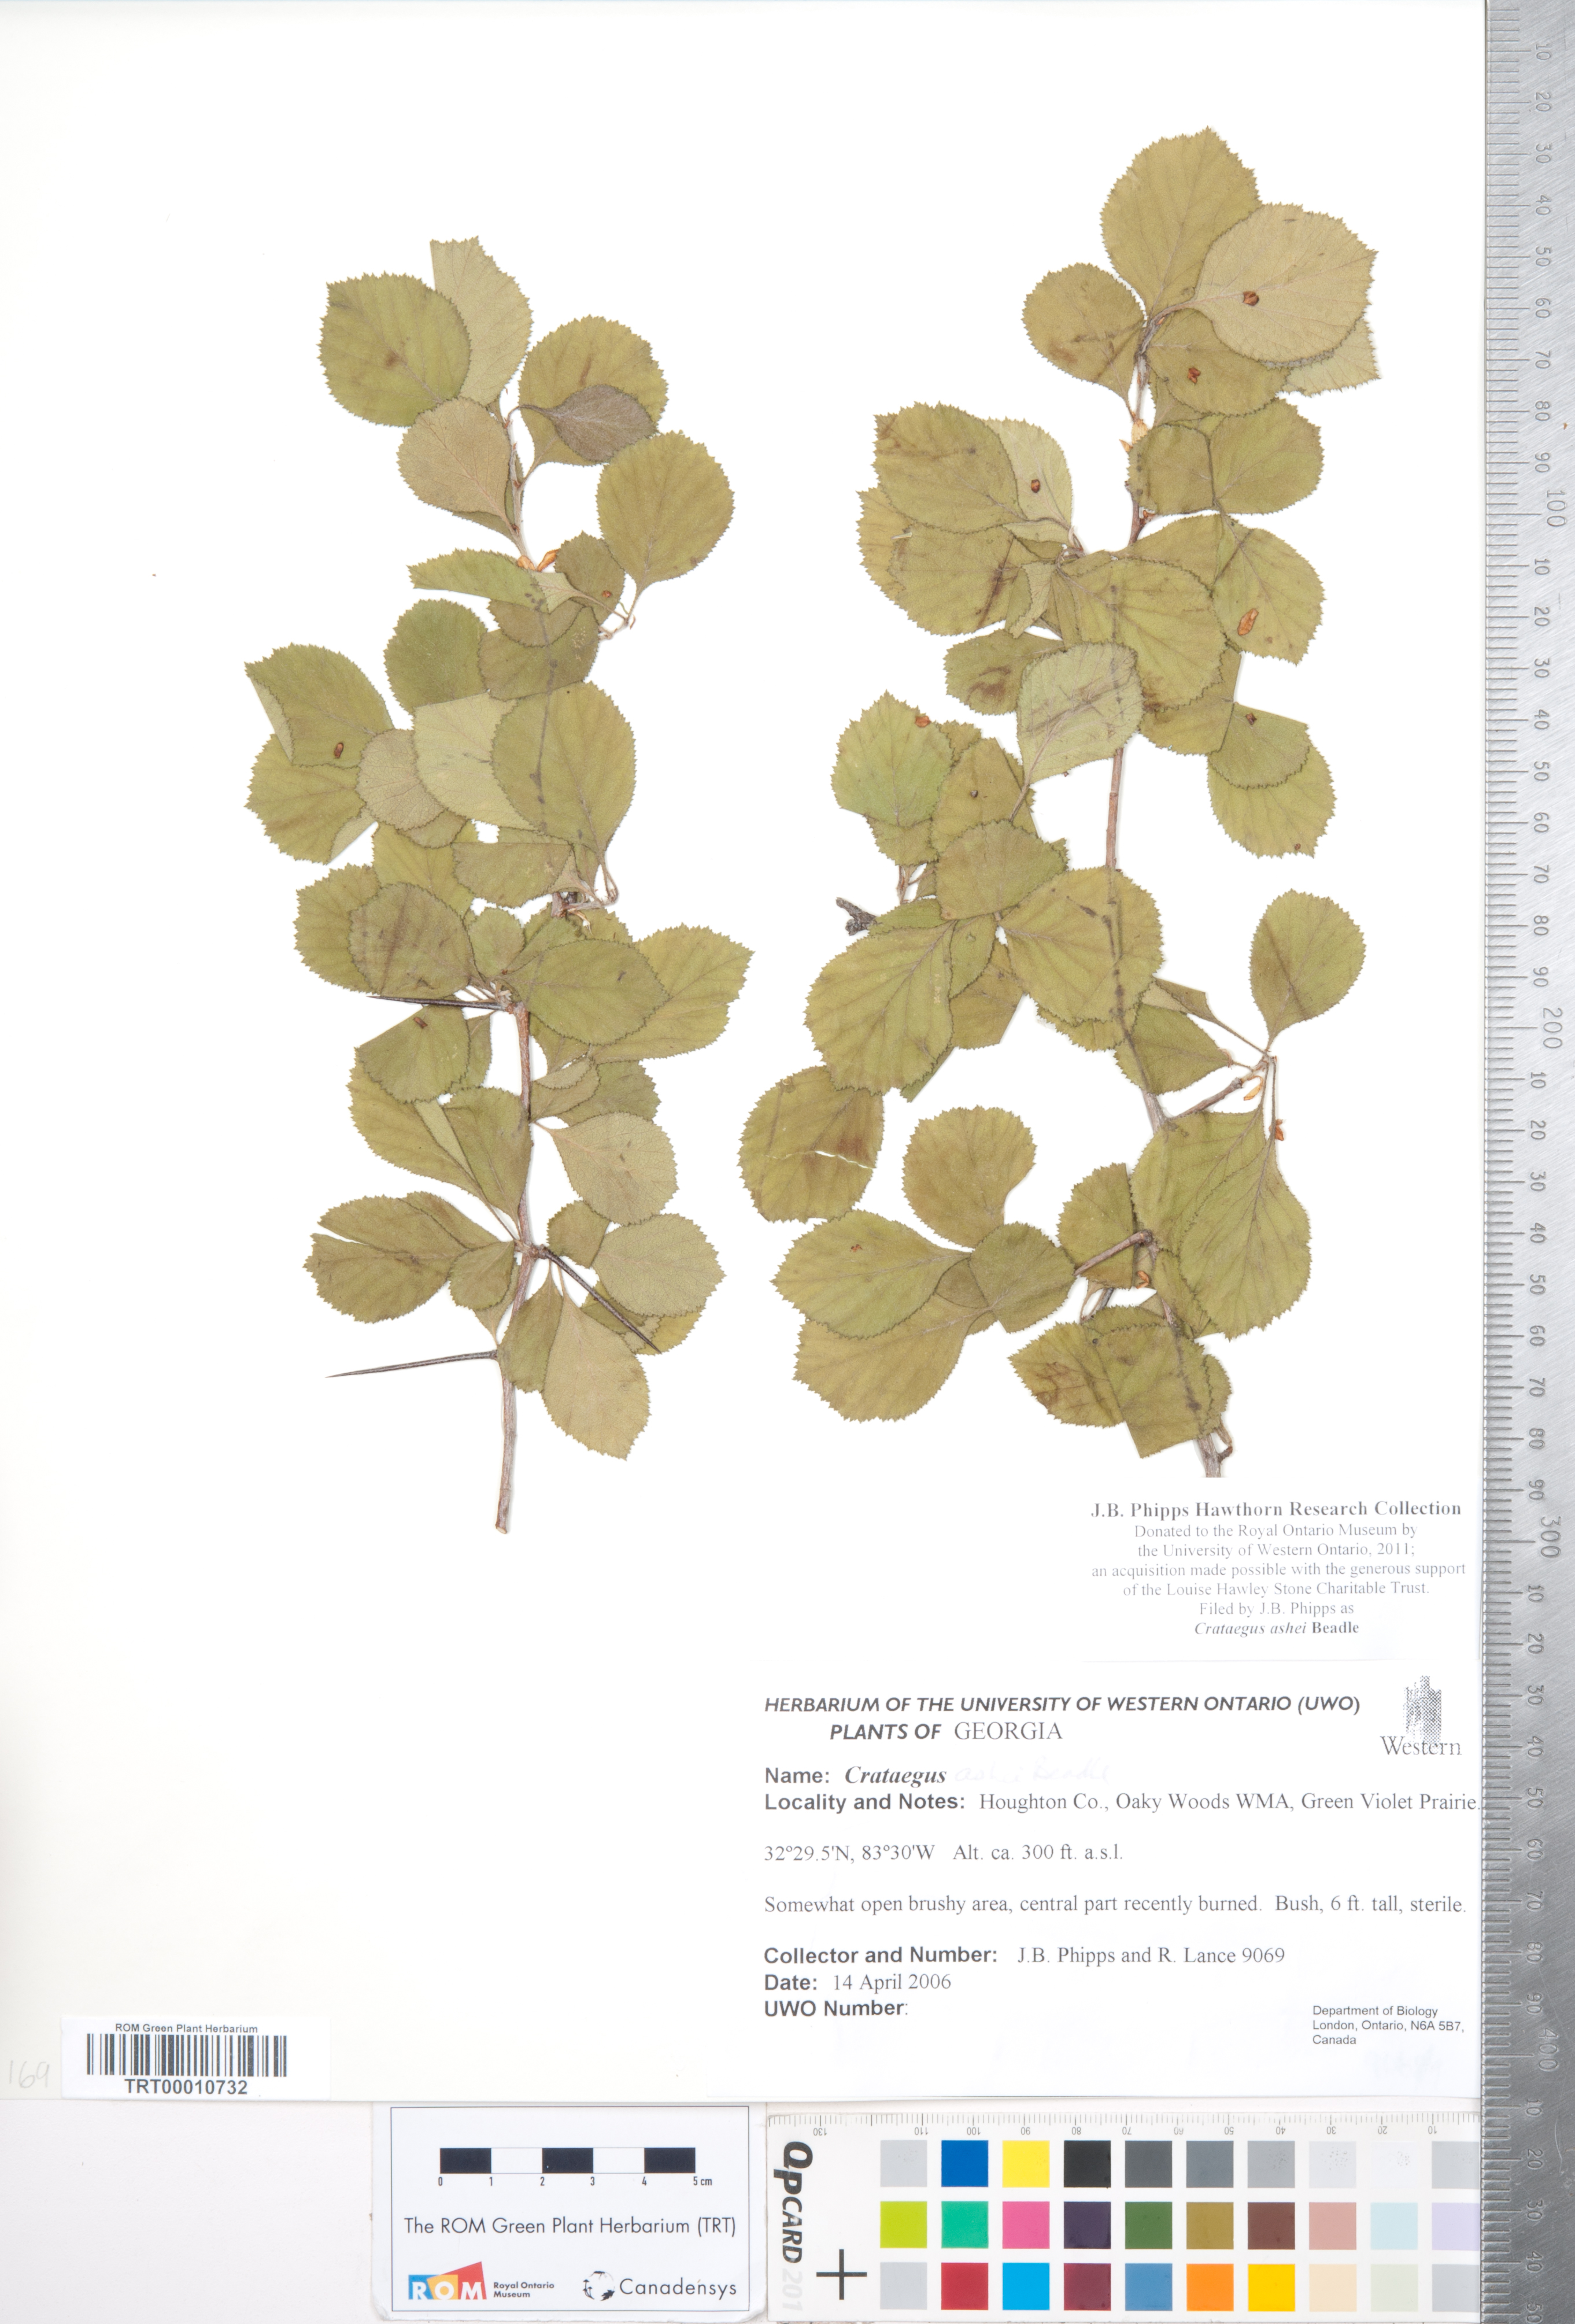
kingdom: Plantae
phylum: Tracheophyta
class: Magnoliopsida
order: Rosales
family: Rosaceae
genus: Crataegus
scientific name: Crataegus ashei
